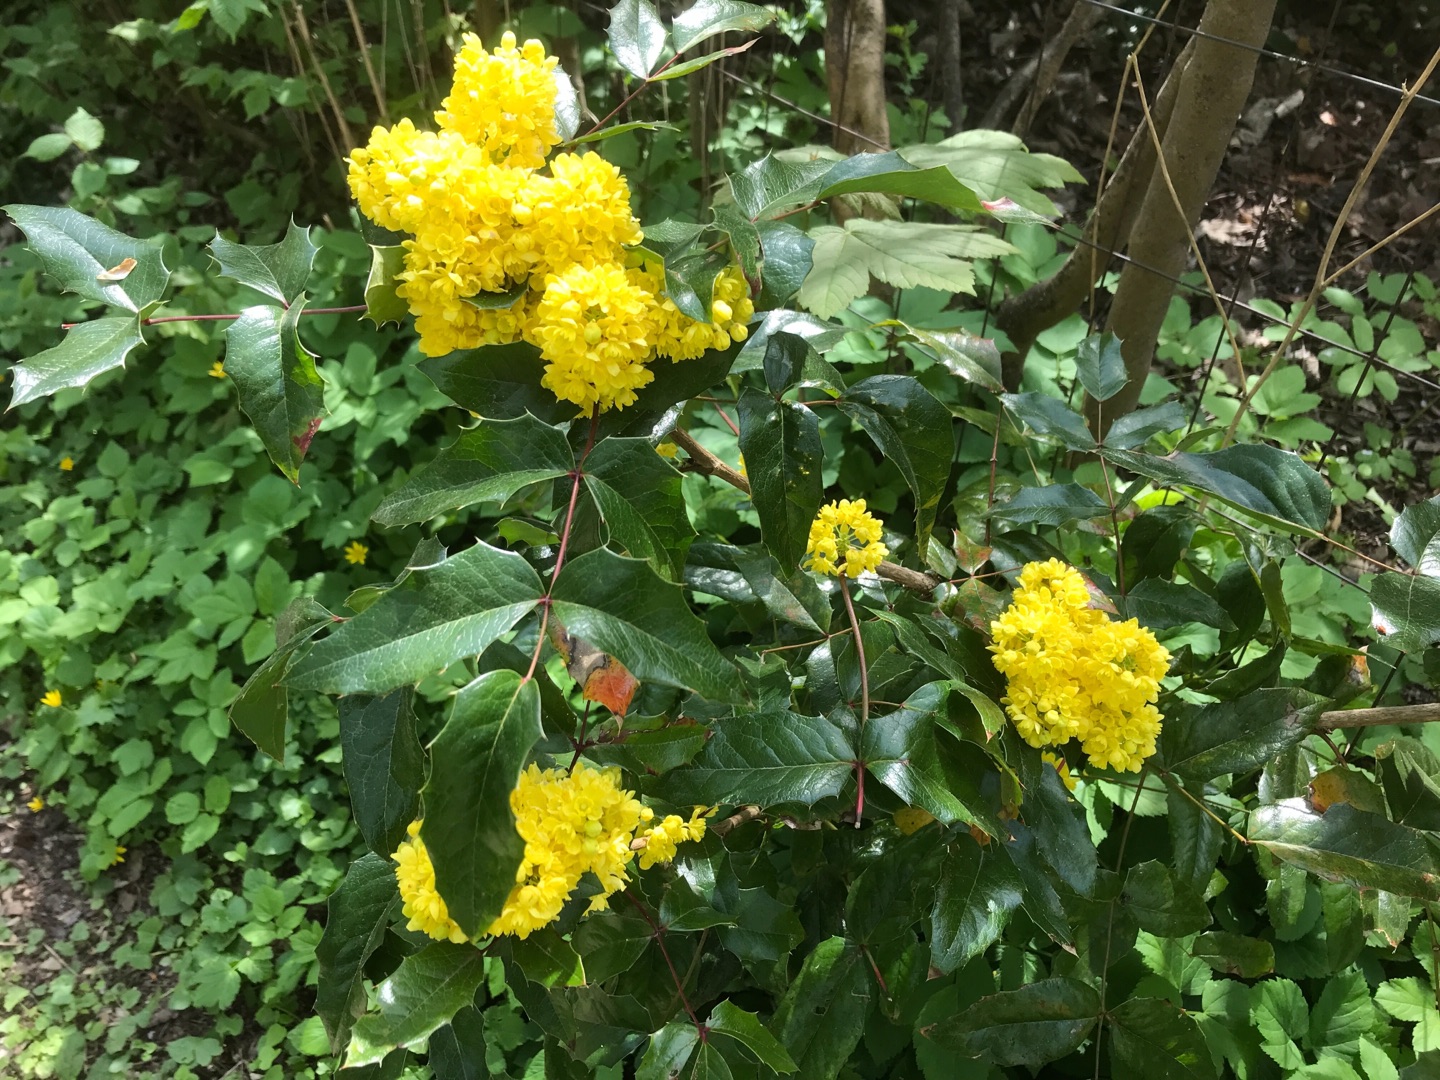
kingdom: Plantae
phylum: Tracheophyta
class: Magnoliopsida
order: Ranunculales
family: Berberidaceae
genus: Mahonia
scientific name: Mahonia aquifolium
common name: Almindelig mahonie
